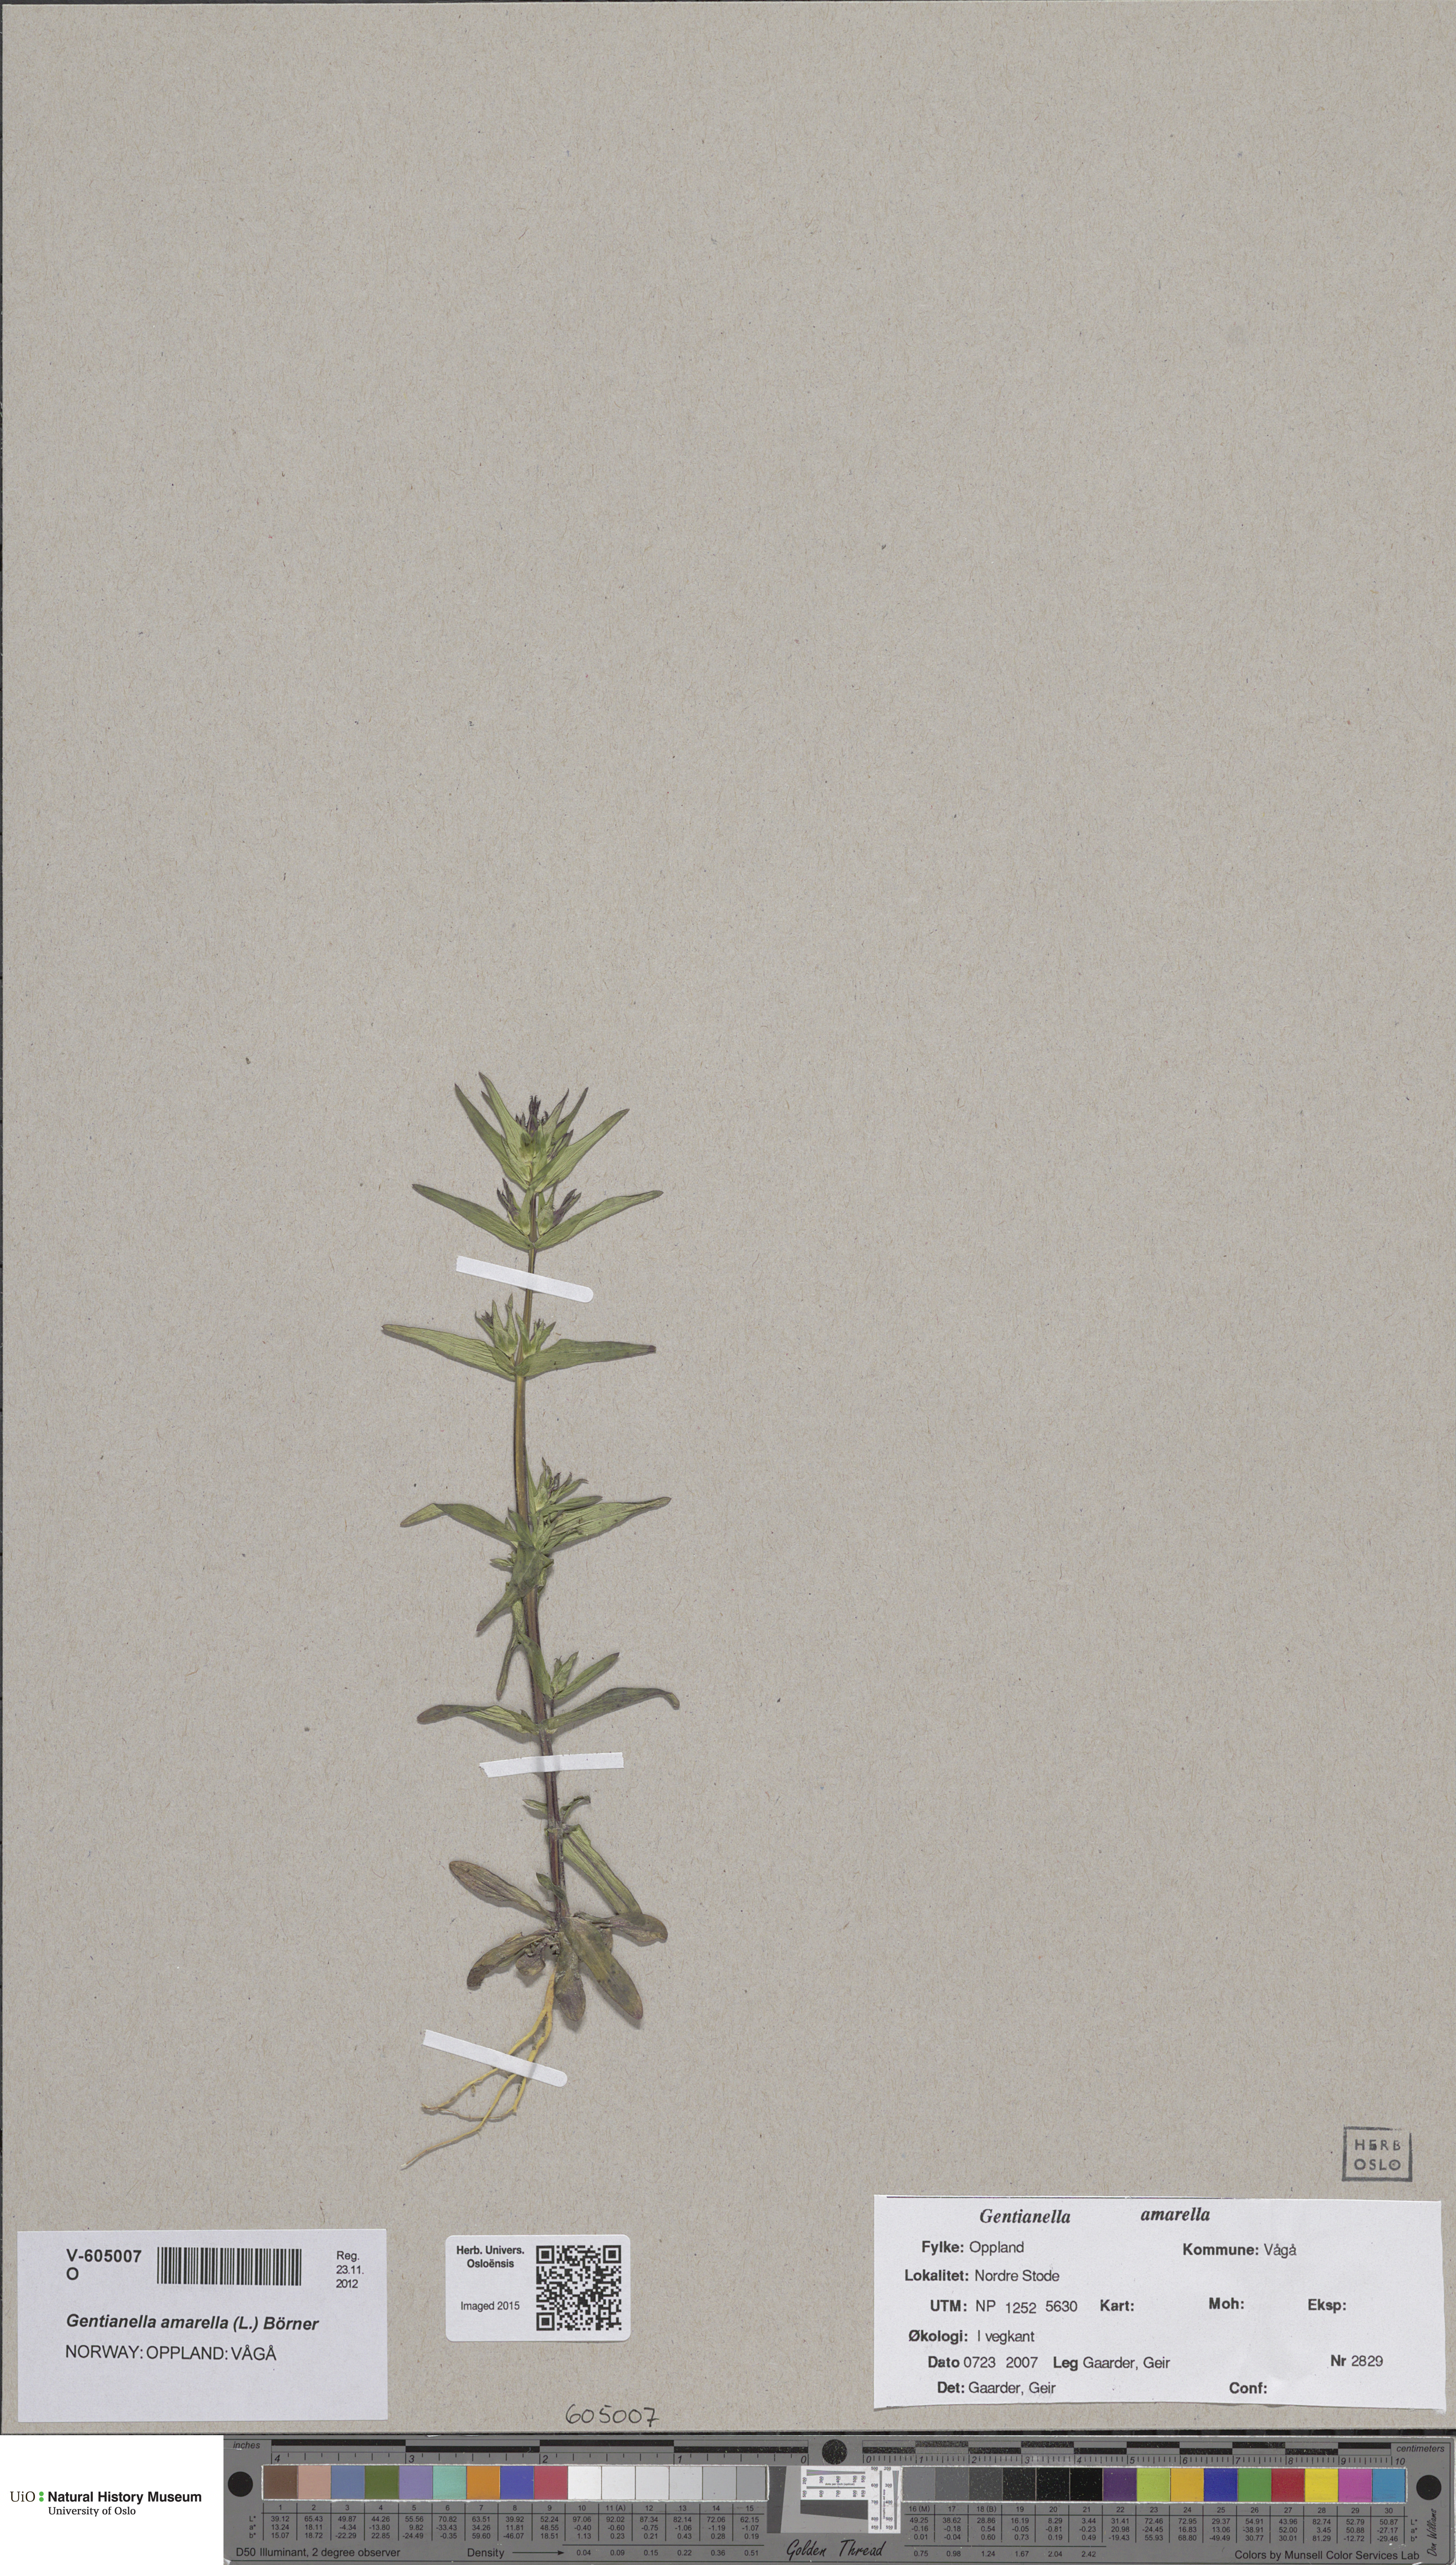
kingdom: Plantae
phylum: Tracheophyta
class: Magnoliopsida
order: Gentianales
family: Gentianaceae
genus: Gentianella
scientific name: Gentianella amarella
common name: Autumn gentian
